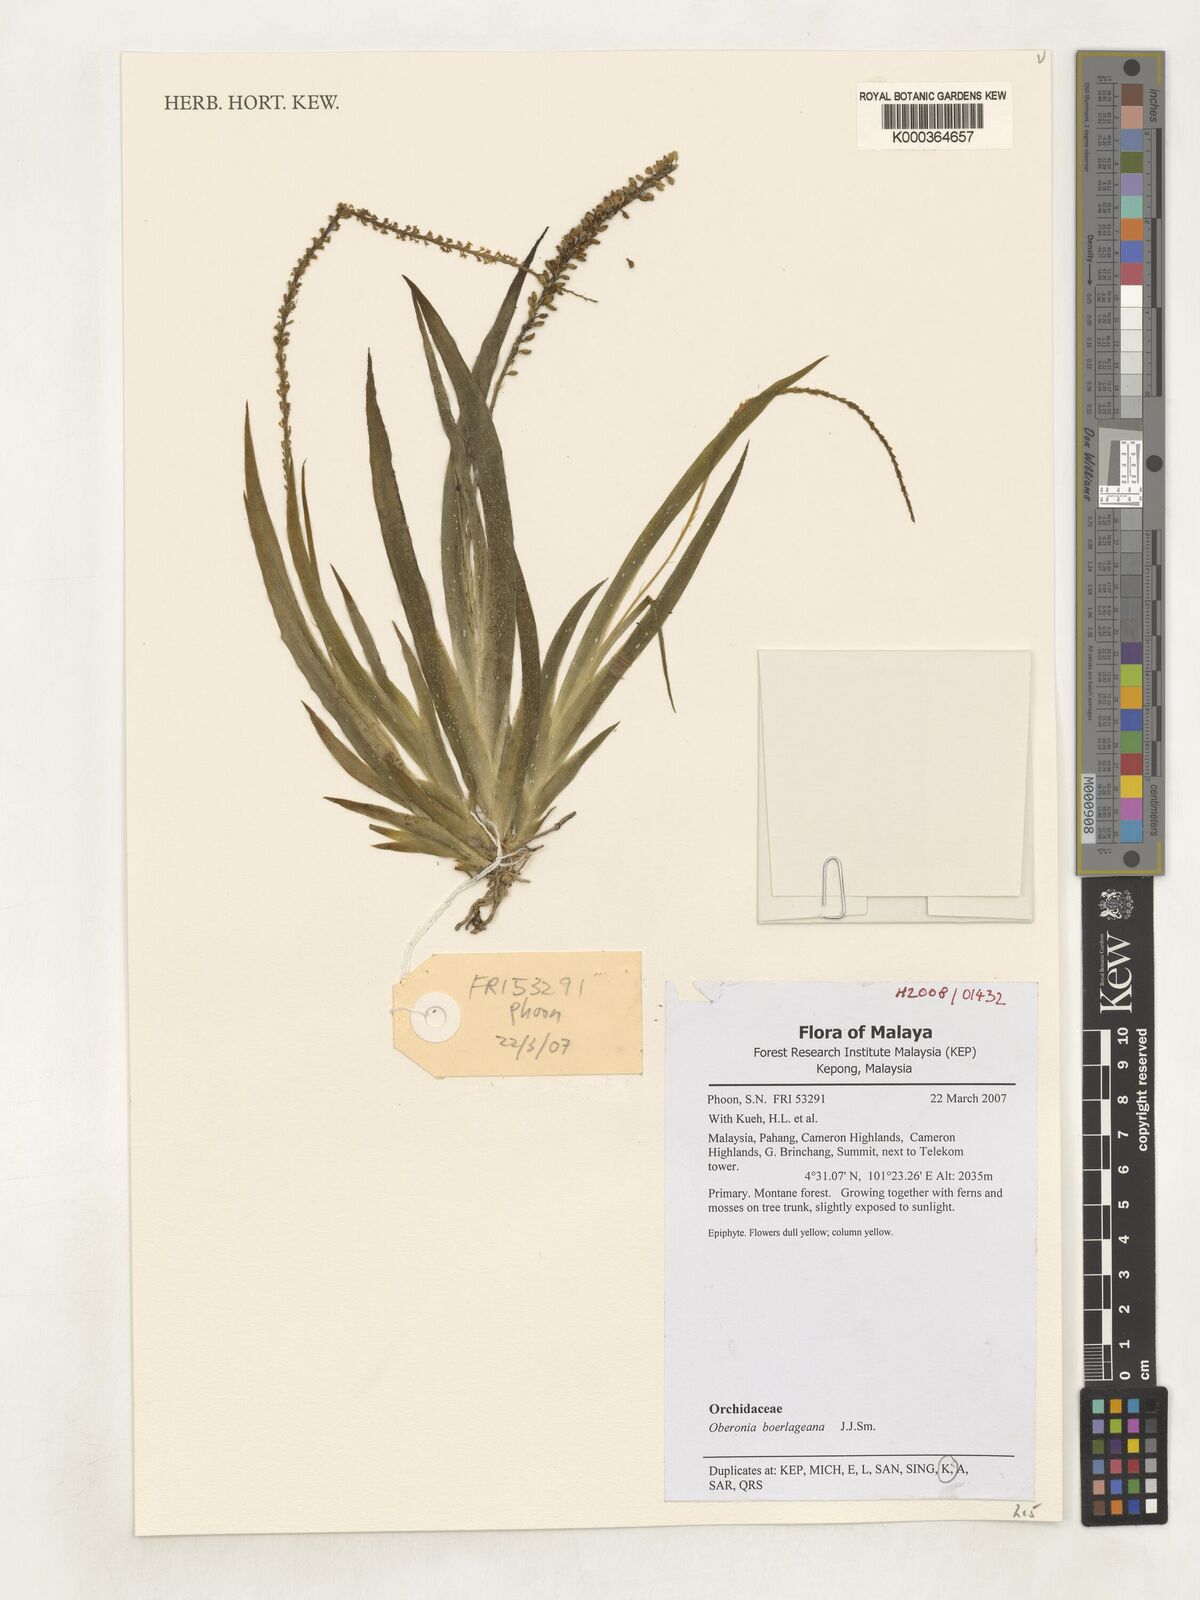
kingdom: Plantae
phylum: Tracheophyta
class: Liliopsida
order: Asparagales
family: Orchidaceae
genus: Oberonia
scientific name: Oberonia boerlageana
